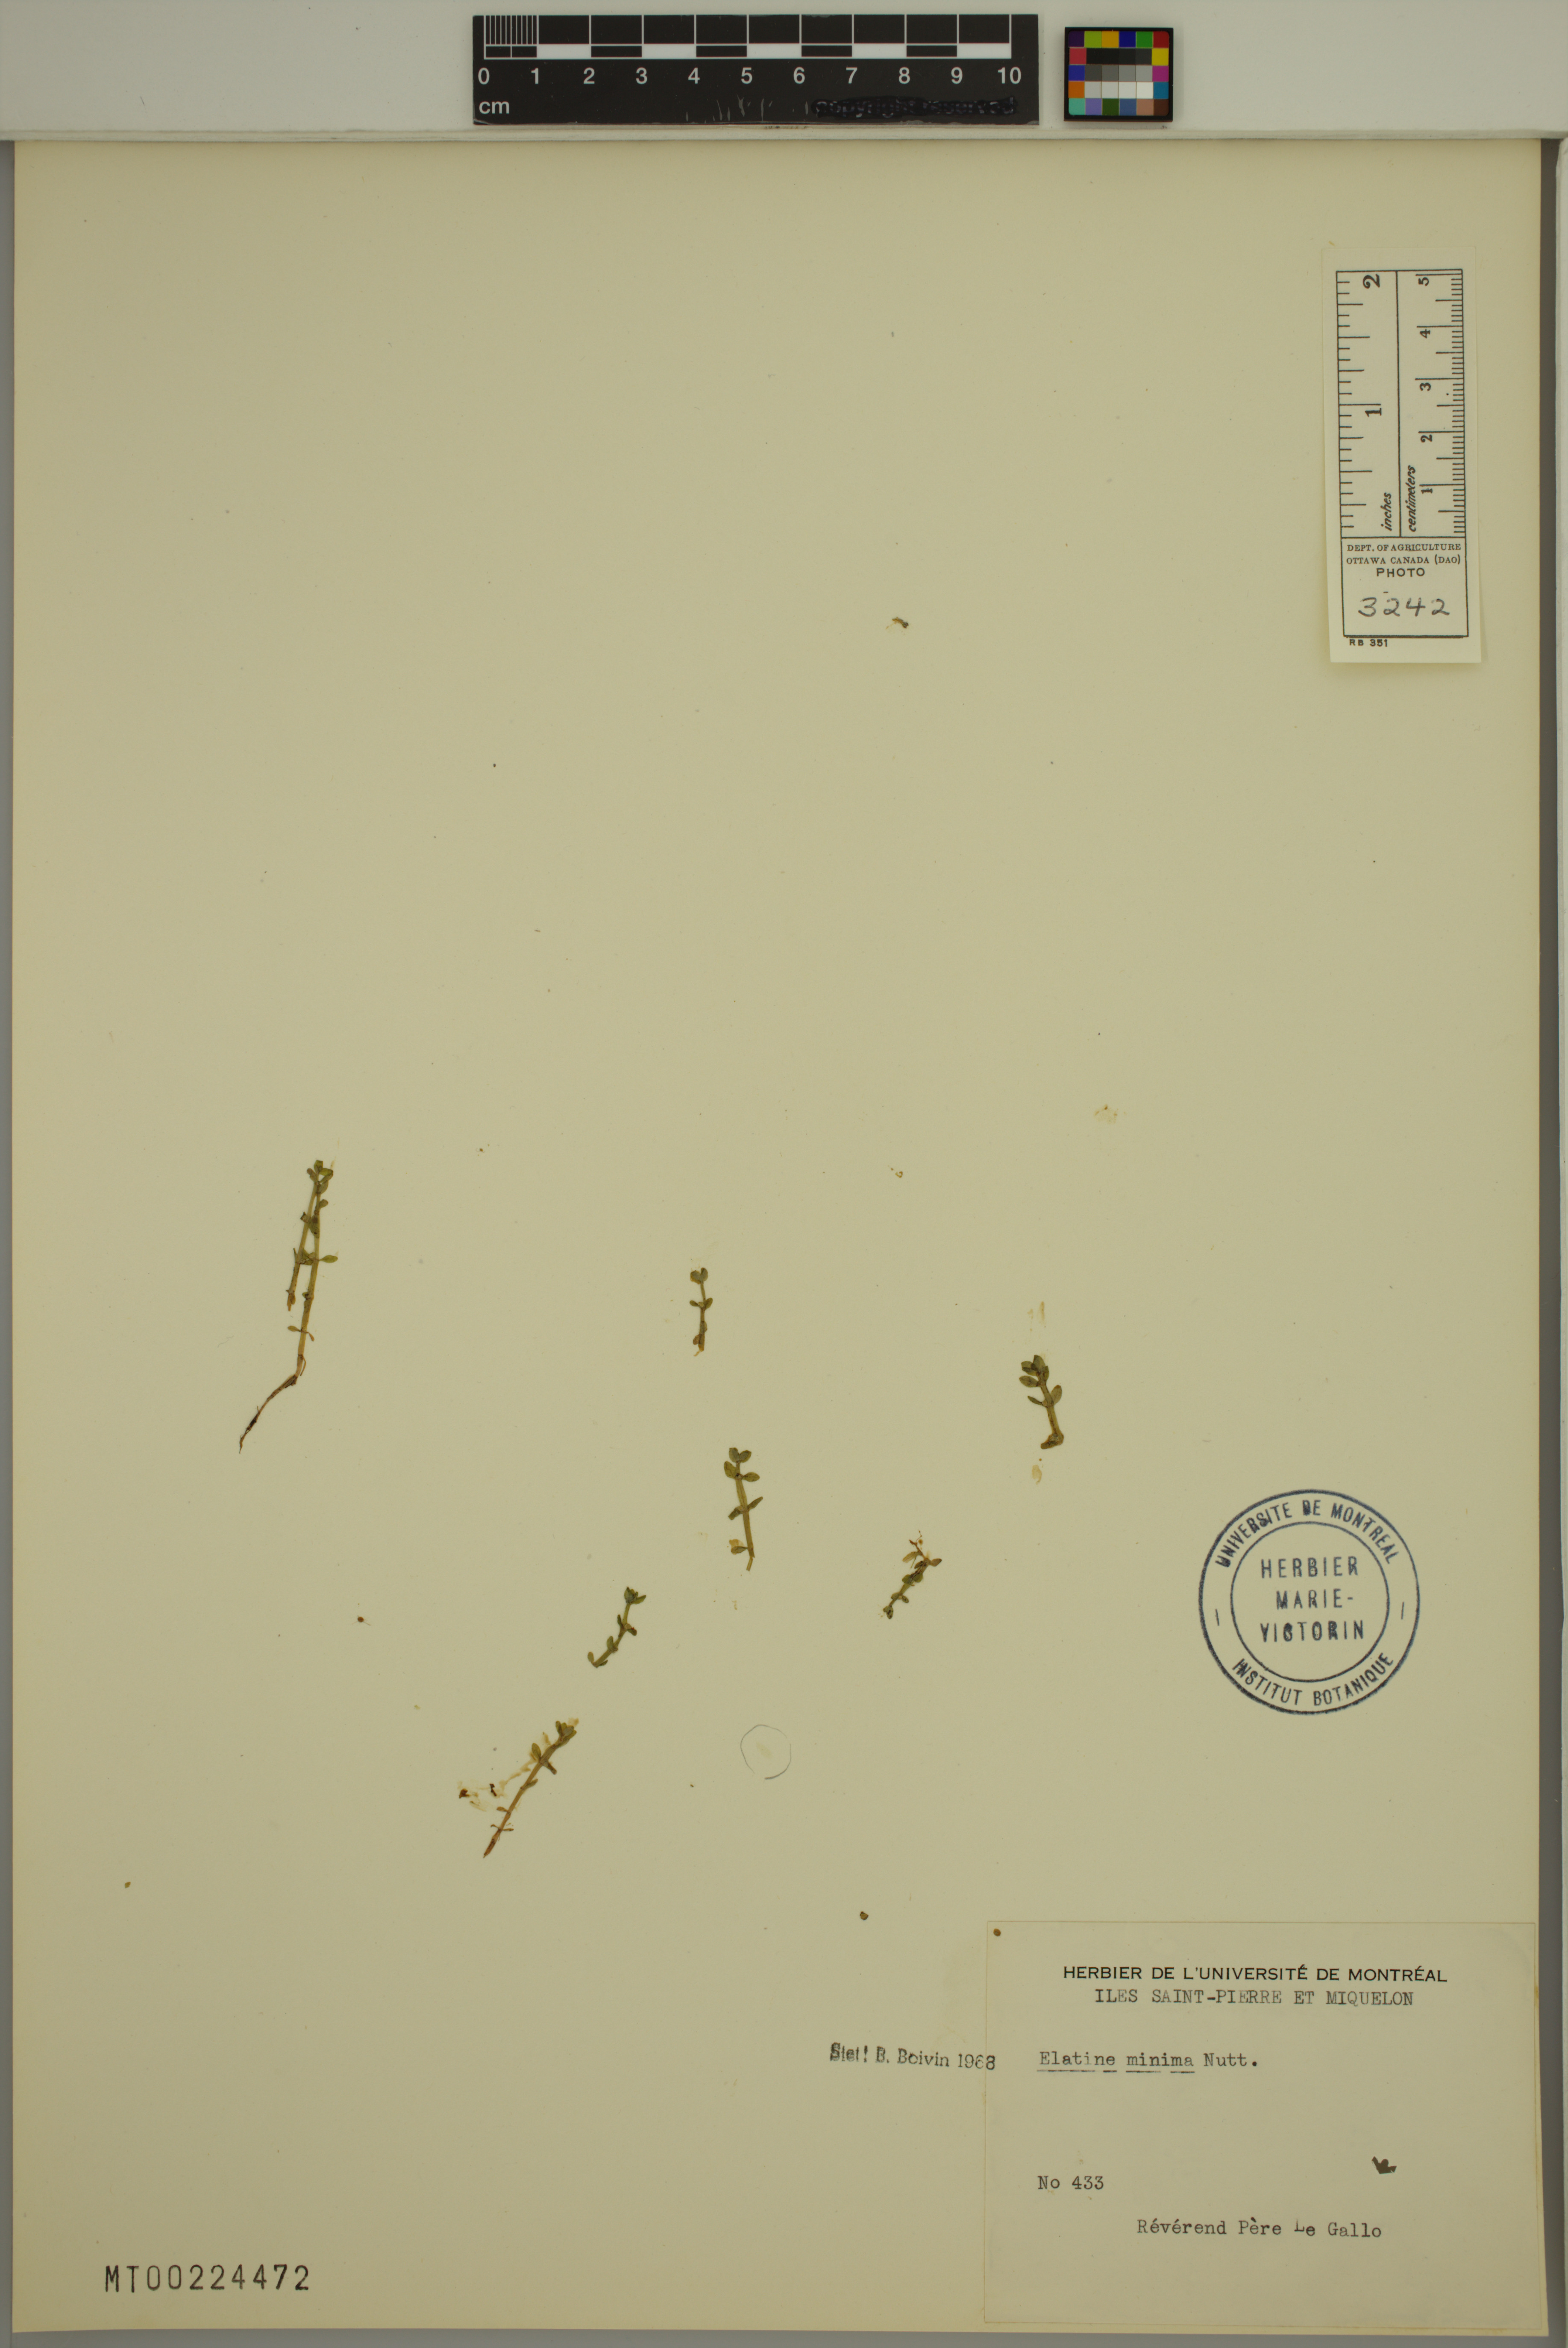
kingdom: Plantae
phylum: Tracheophyta
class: Magnoliopsida
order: Malpighiales
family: Elatinaceae
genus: Elatine
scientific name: Elatine minima
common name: Small waterwort
